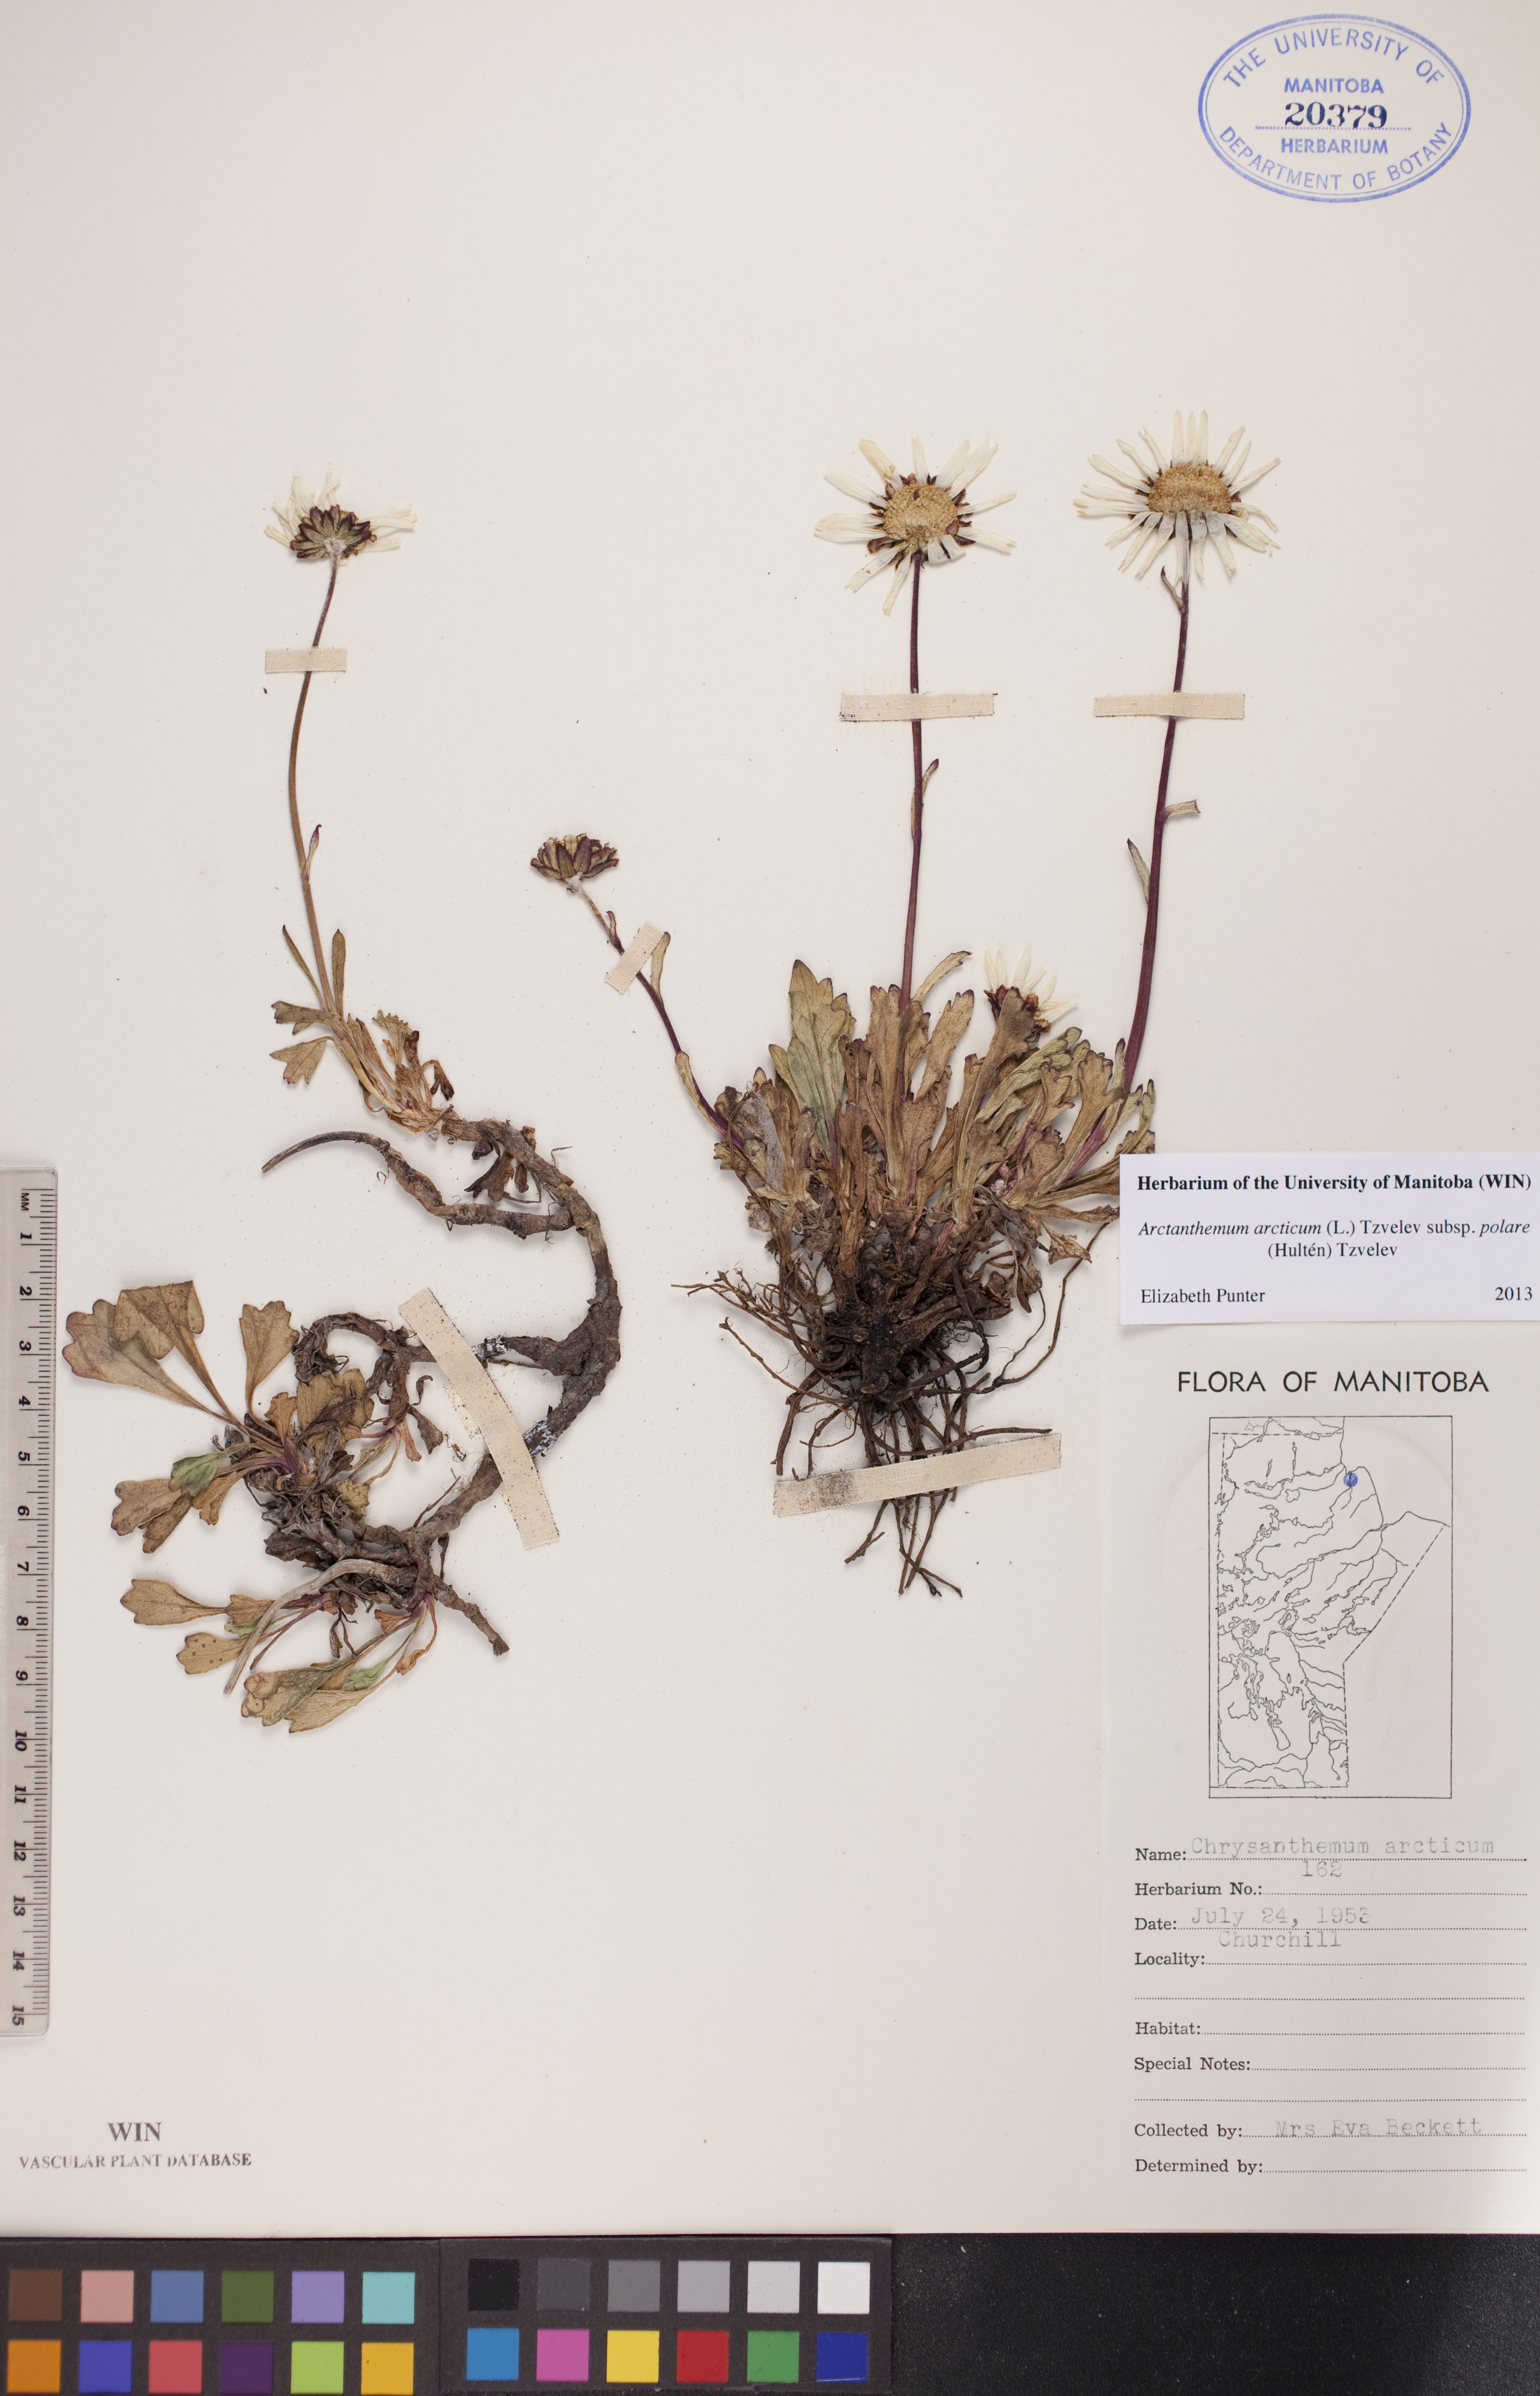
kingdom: Plantae
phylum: Tracheophyta
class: Magnoliopsida
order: Asterales
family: Asteraceae
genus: Arctanthemum
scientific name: Arctanthemum arcticum
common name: Arctic daisy
